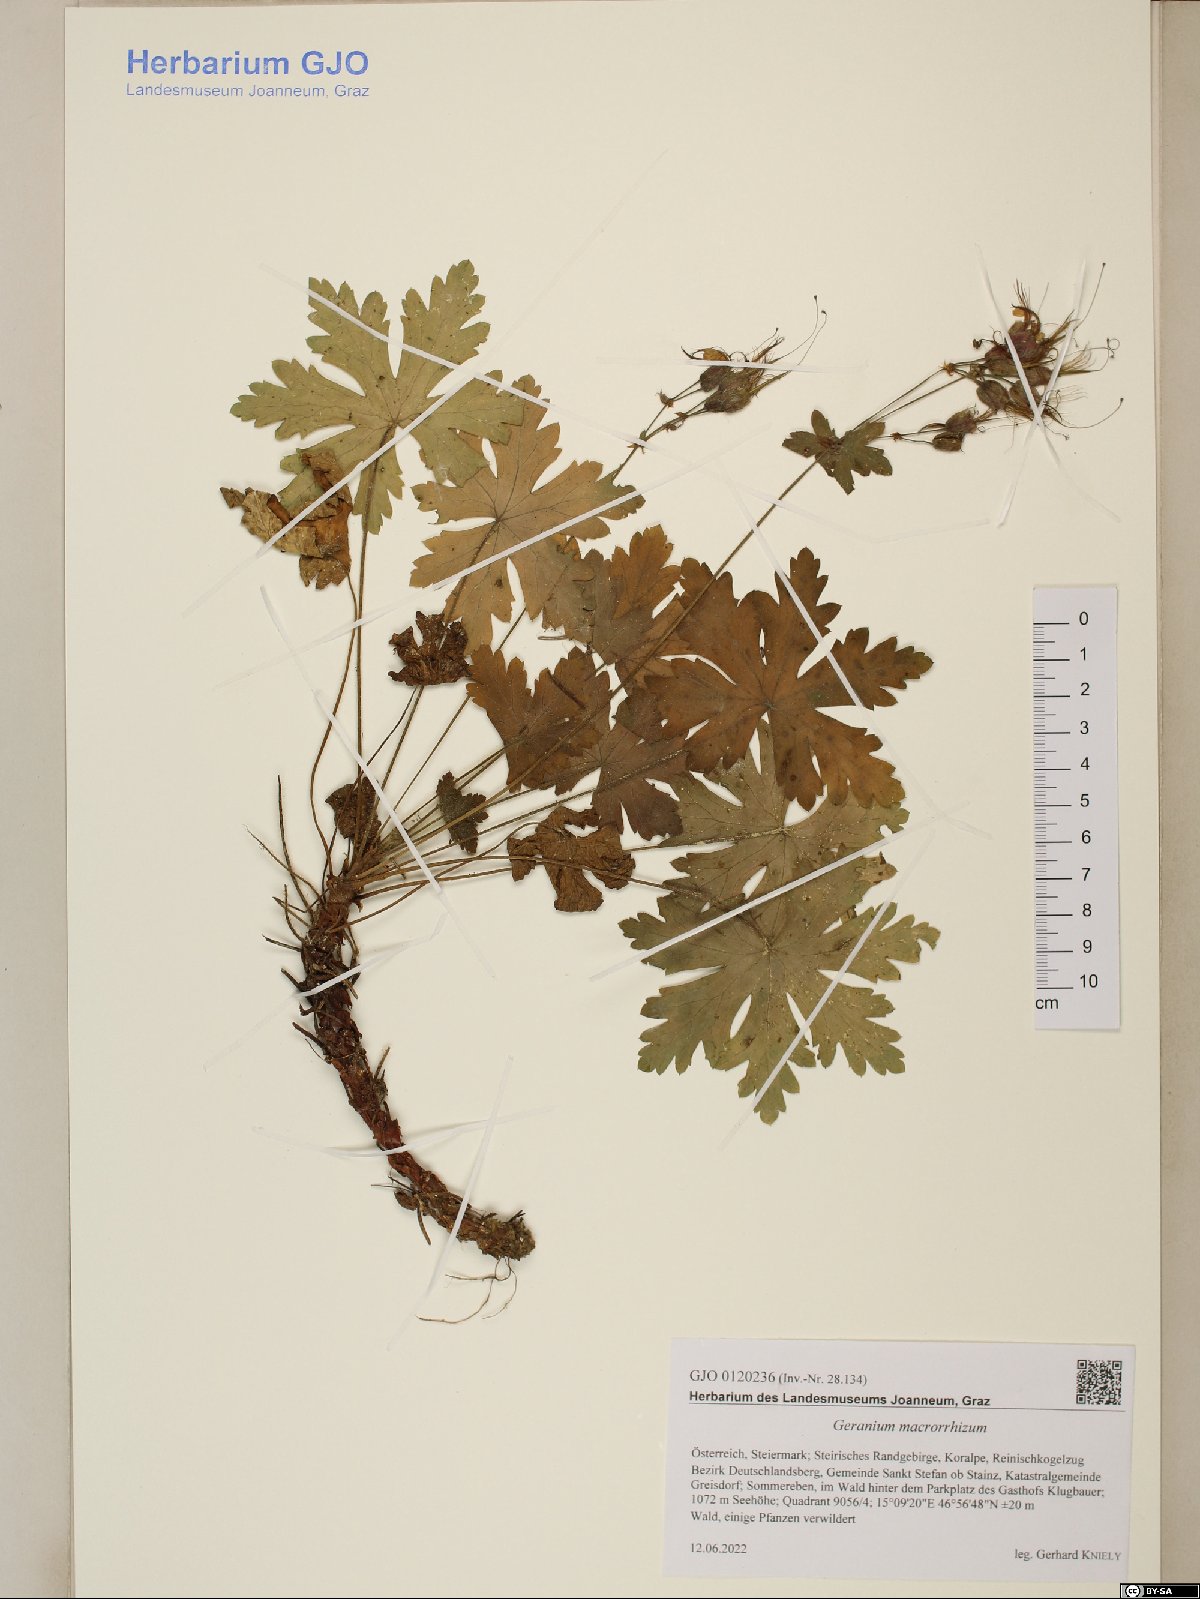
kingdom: Plantae
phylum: Tracheophyta
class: Magnoliopsida
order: Geraniales
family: Geraniaceae
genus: Geranium
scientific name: Geranium macrorrhizum
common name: Rock crane's-bill
